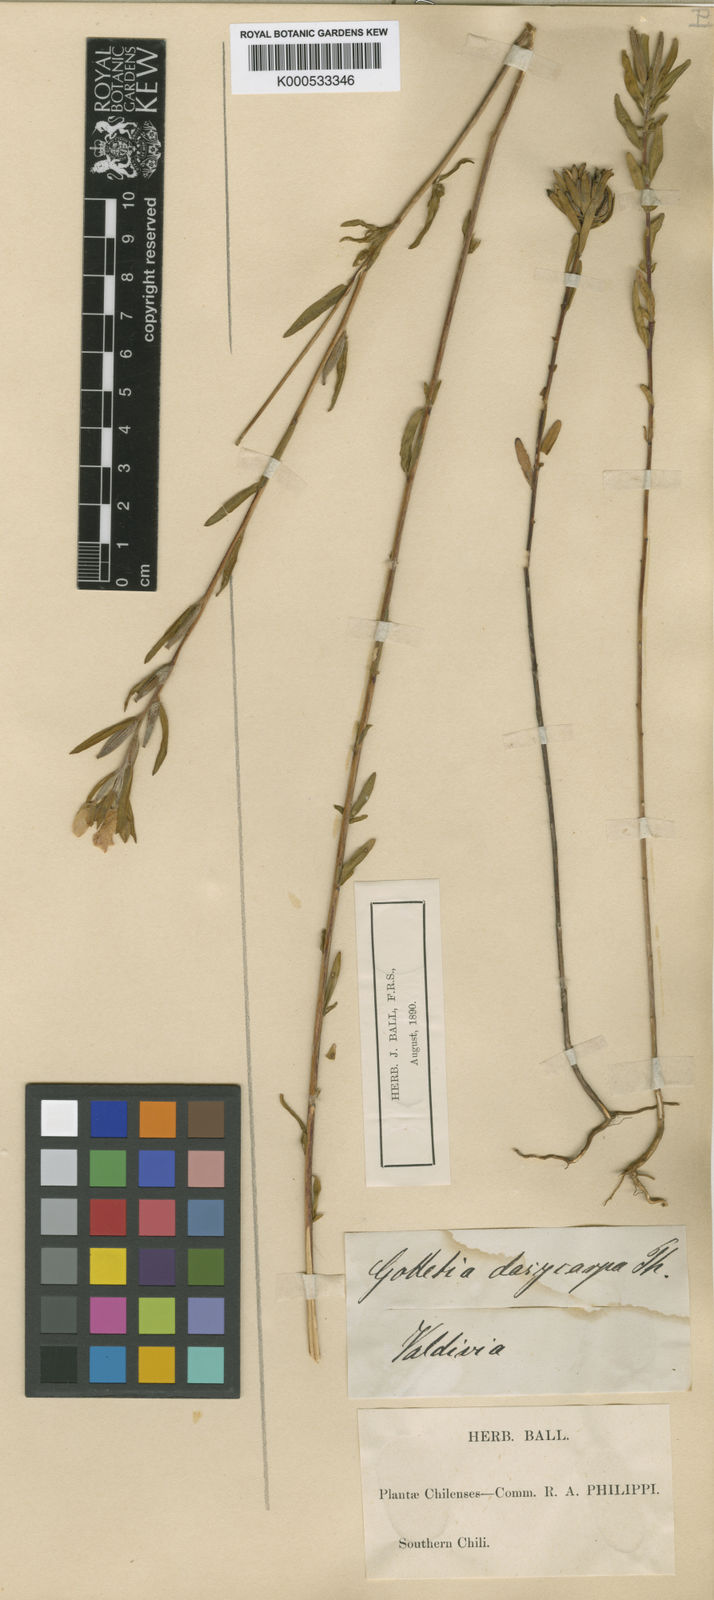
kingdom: Plantae
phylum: Tracheophyta
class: Magnoliopsida
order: Myrtales
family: Onagraceae
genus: Clarkia
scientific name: Clarkia
